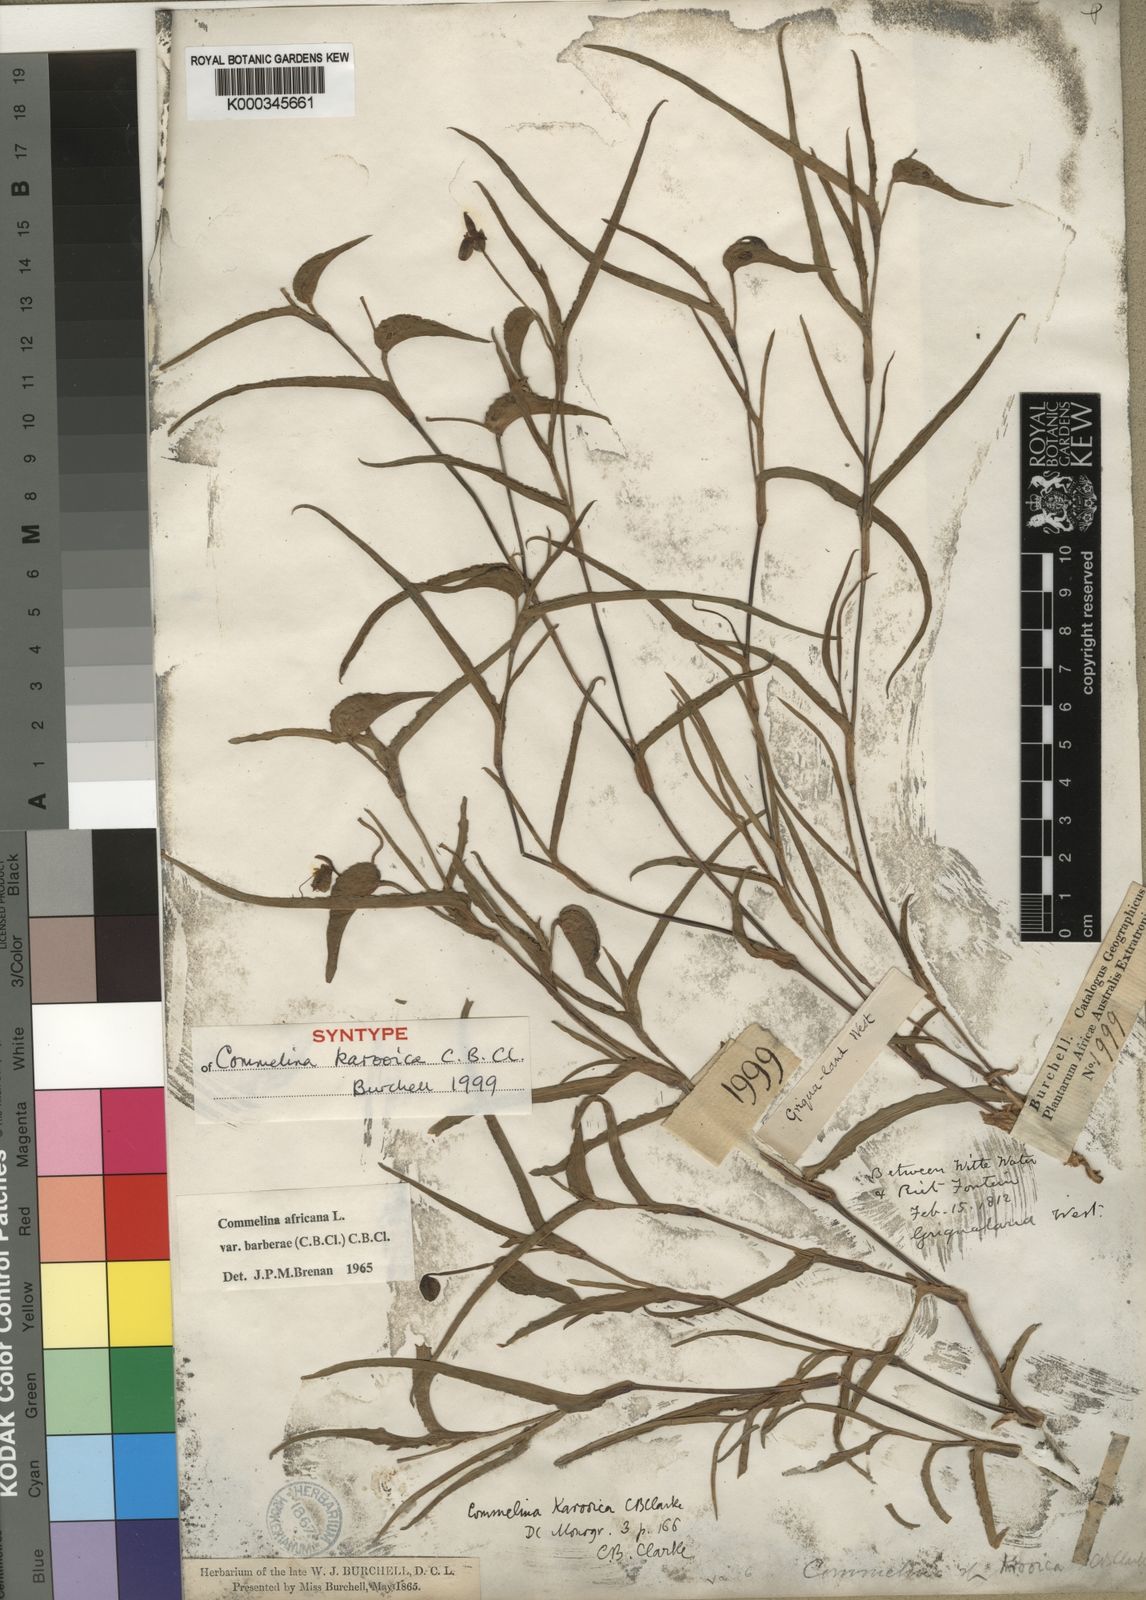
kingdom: Plantae
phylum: Tracheophyta
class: Liliopsida
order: Commelinales
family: Commelinaceae
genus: Commelina
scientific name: Commelina africana
